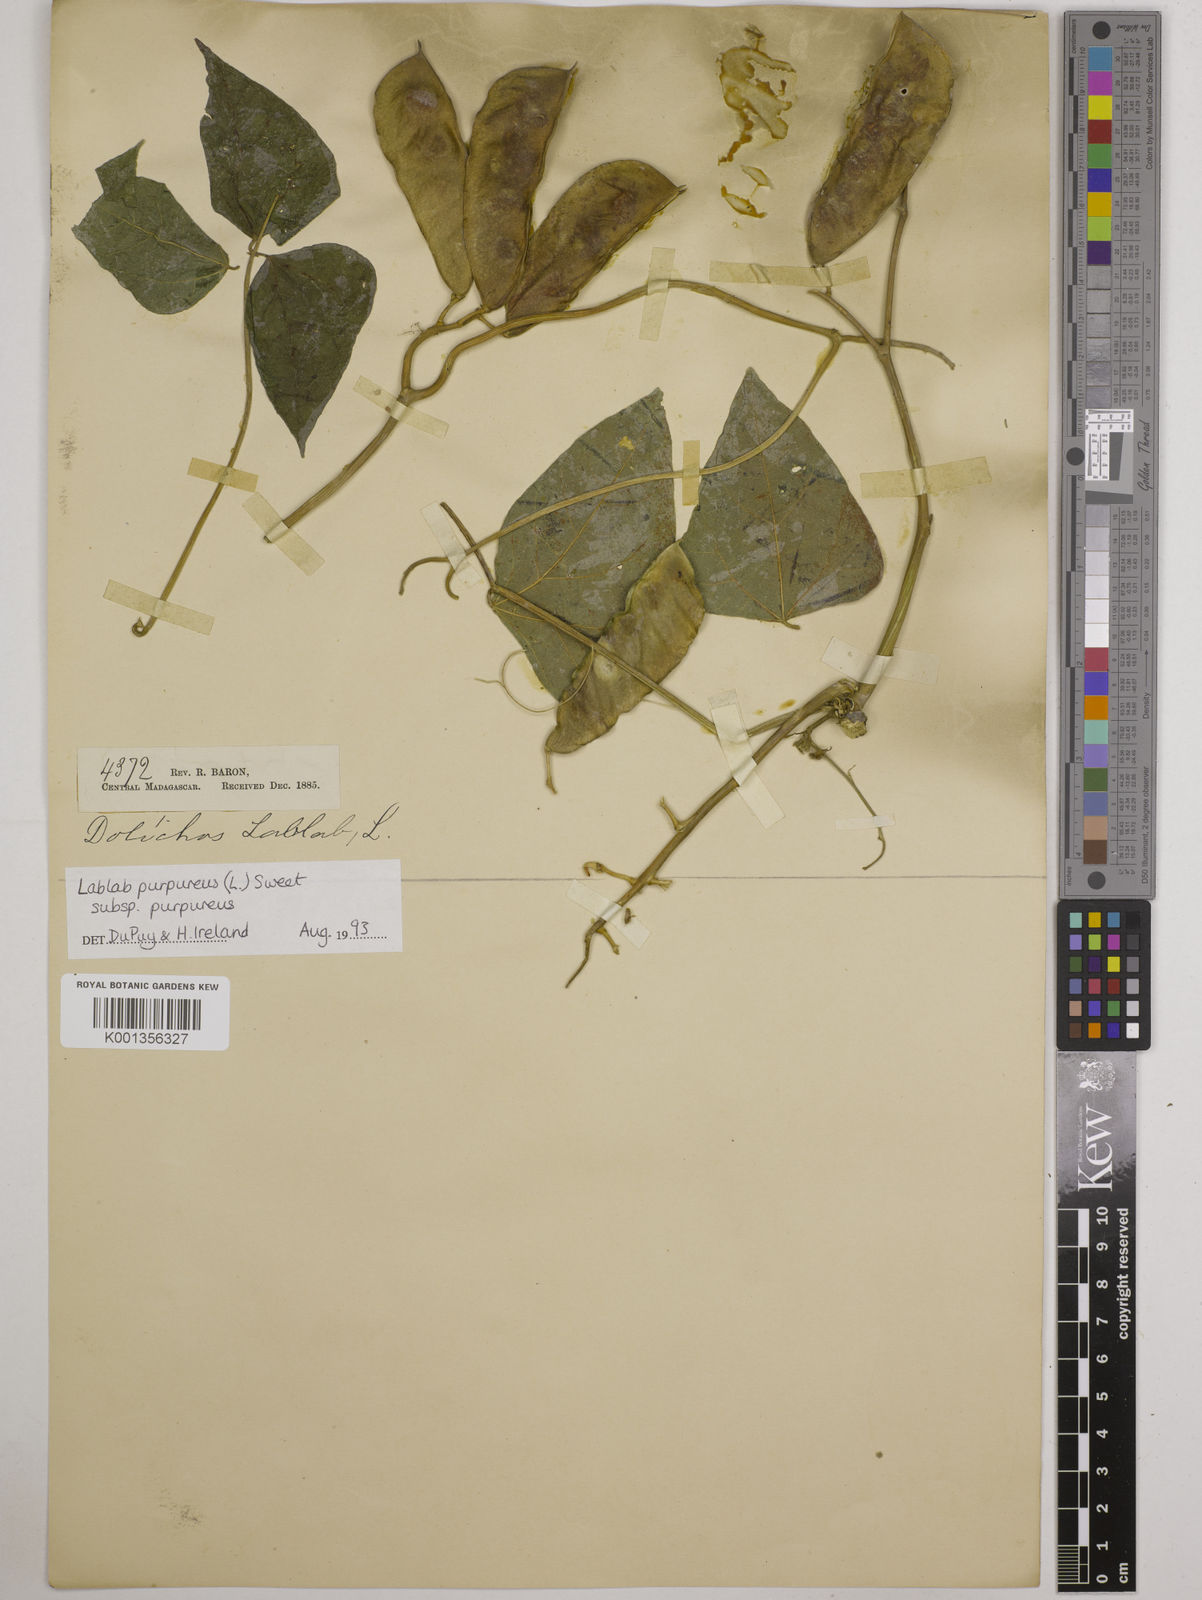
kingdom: Plantae
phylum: Tracheophyta
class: Magnoliopsida
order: Fabales
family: Fabaceae
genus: Lablab
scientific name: Lablab purpureus
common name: Lablab-bean
